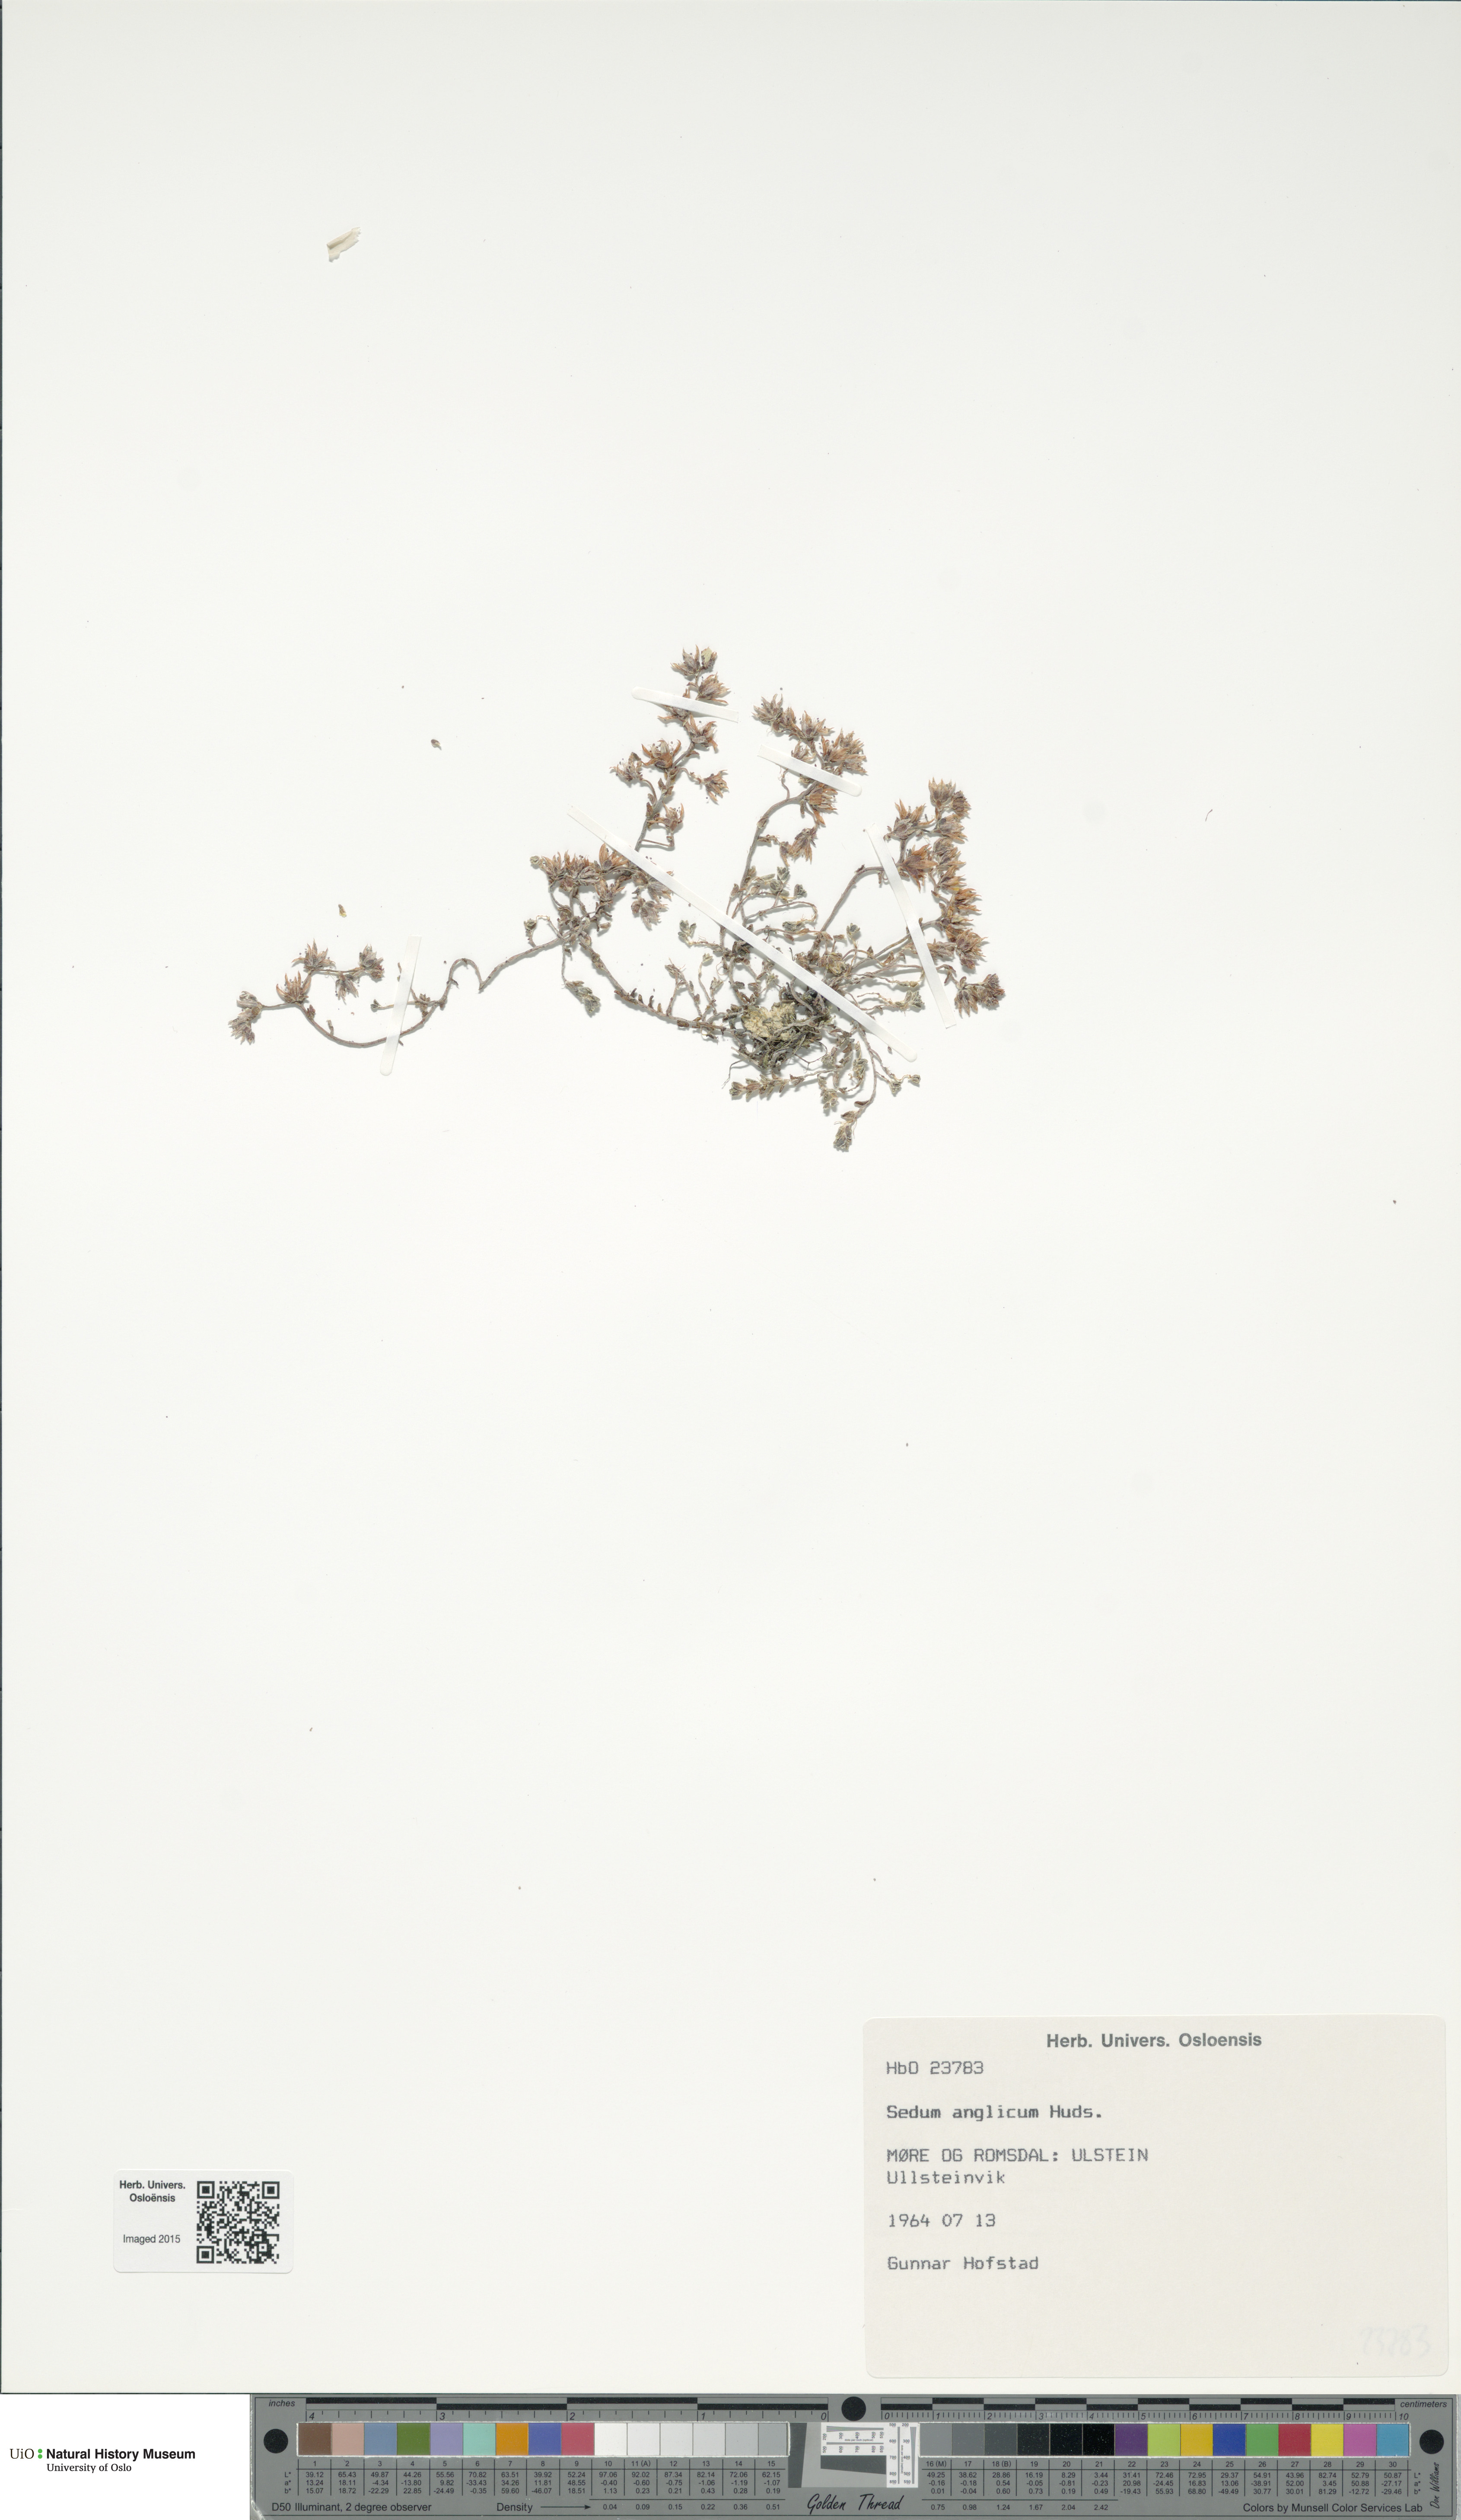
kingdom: Plantae
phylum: Tracheophyta
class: Magnoliopsida
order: Saxifragales
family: Crassulaceae
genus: Sedum
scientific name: Sedum anglicum
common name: English stonecrop
